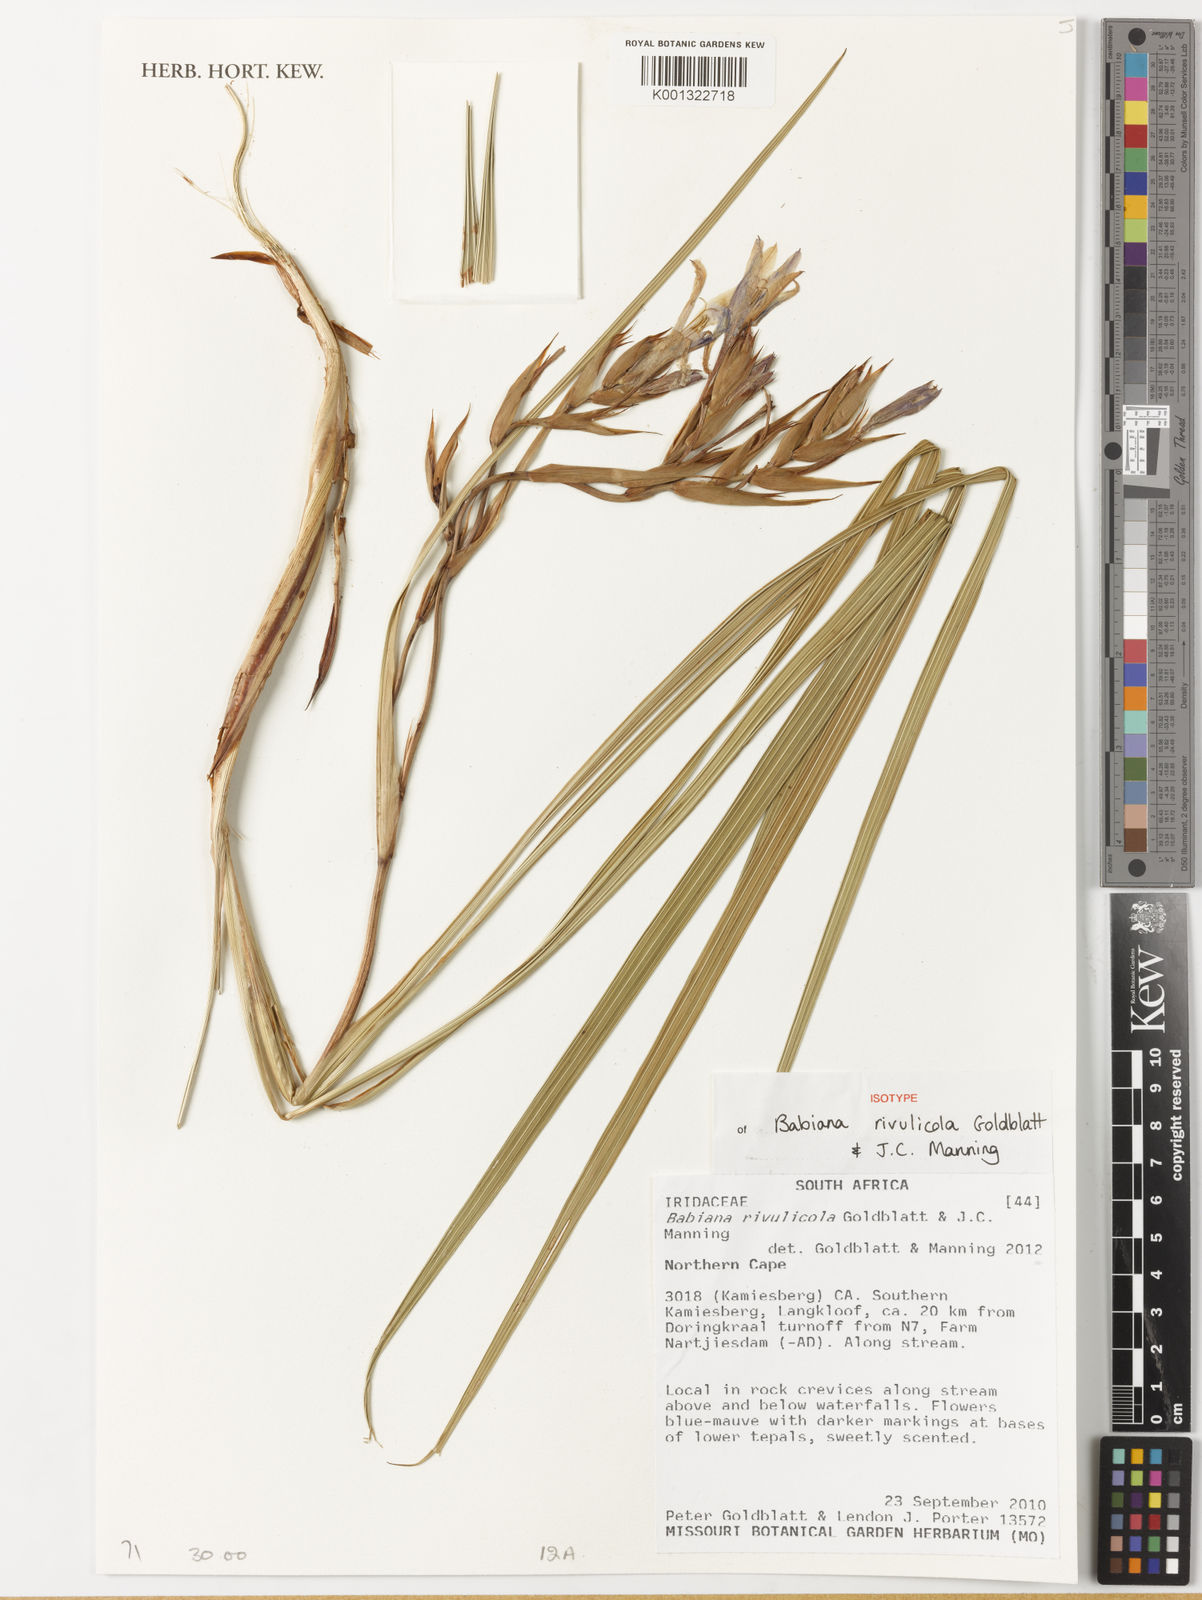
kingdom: Plantae
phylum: Tracheophyta
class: Liliopsida
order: Asparagales
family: Iridaceae
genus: Babiana
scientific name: Babiana rivulicola
